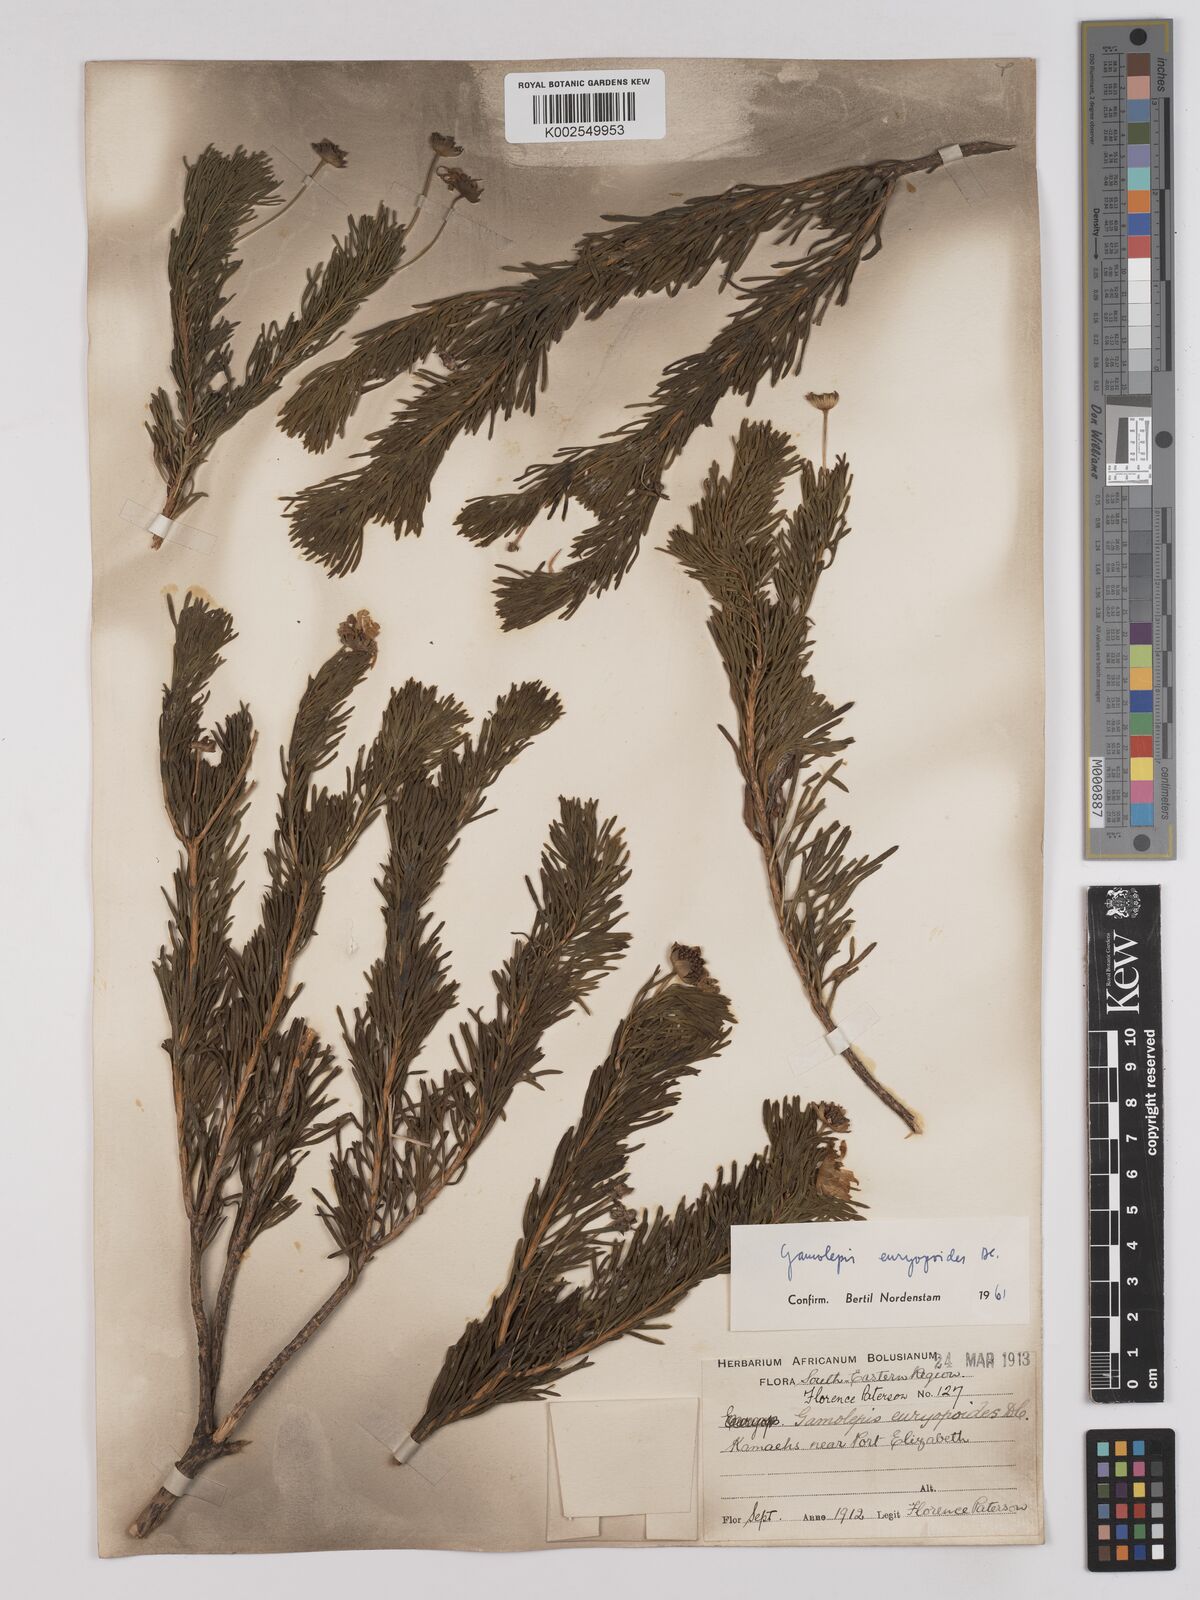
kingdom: Plantae
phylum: Tracheophyta
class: Magnoliopsida
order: Asterales
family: Asteraceae
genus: Euryops
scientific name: Euryops euryopoides
